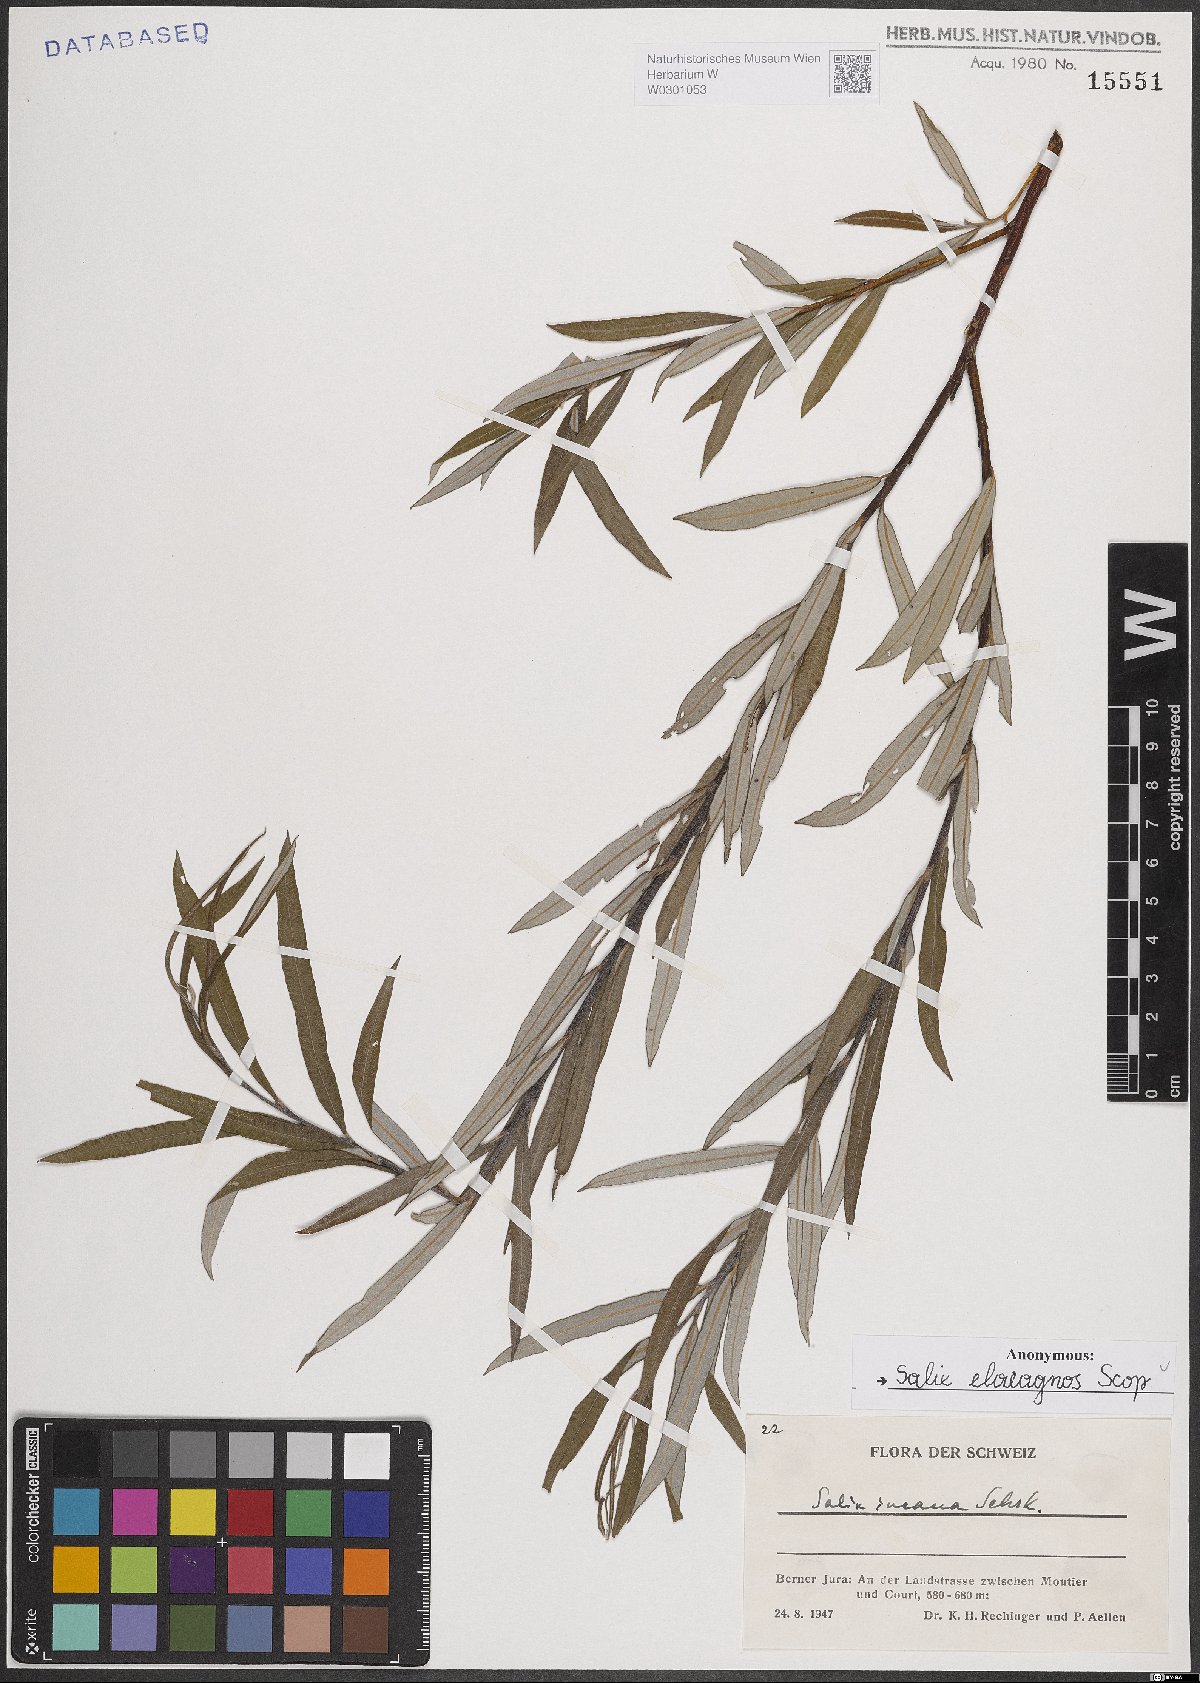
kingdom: Plantae
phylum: Tracheophyta
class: Magnoliopsida
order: Malpighiales
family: Salicaceae
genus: Salix
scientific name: Salix eleagnos
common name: Elaeagnus willow
